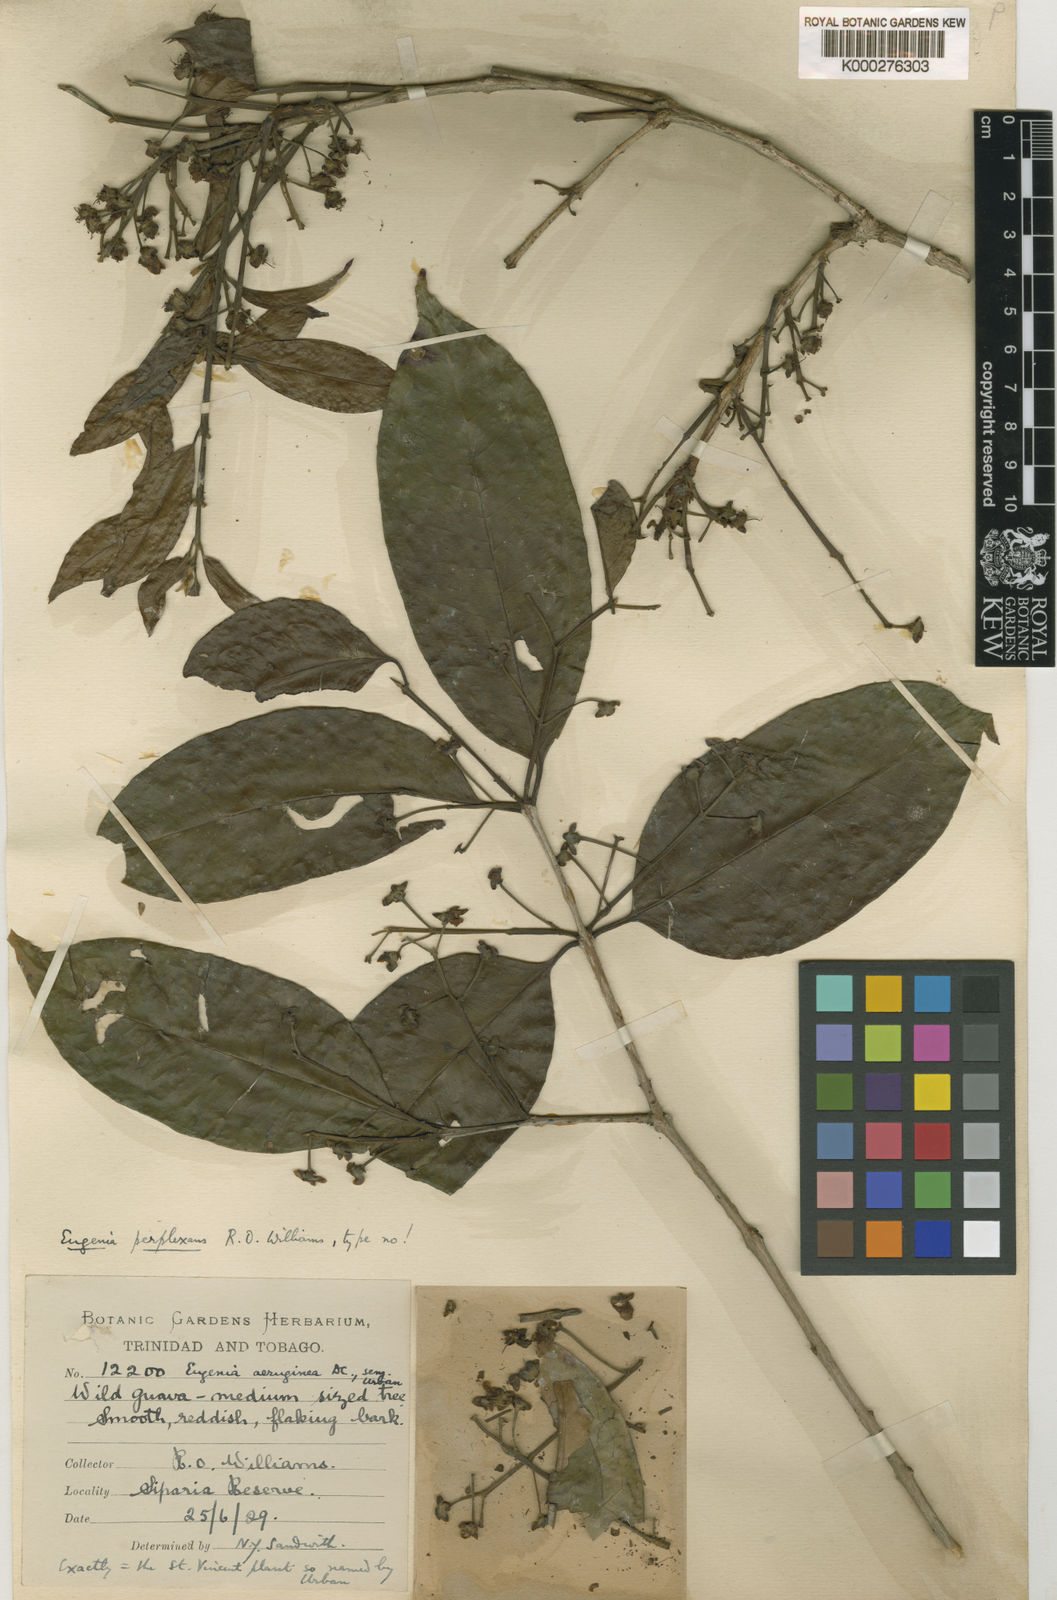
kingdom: Plantae
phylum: Tracheophyta
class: Magnoliopsida
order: Myrtales
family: Myrtaceae
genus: Eugenia
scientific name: Eugenia trinervia
